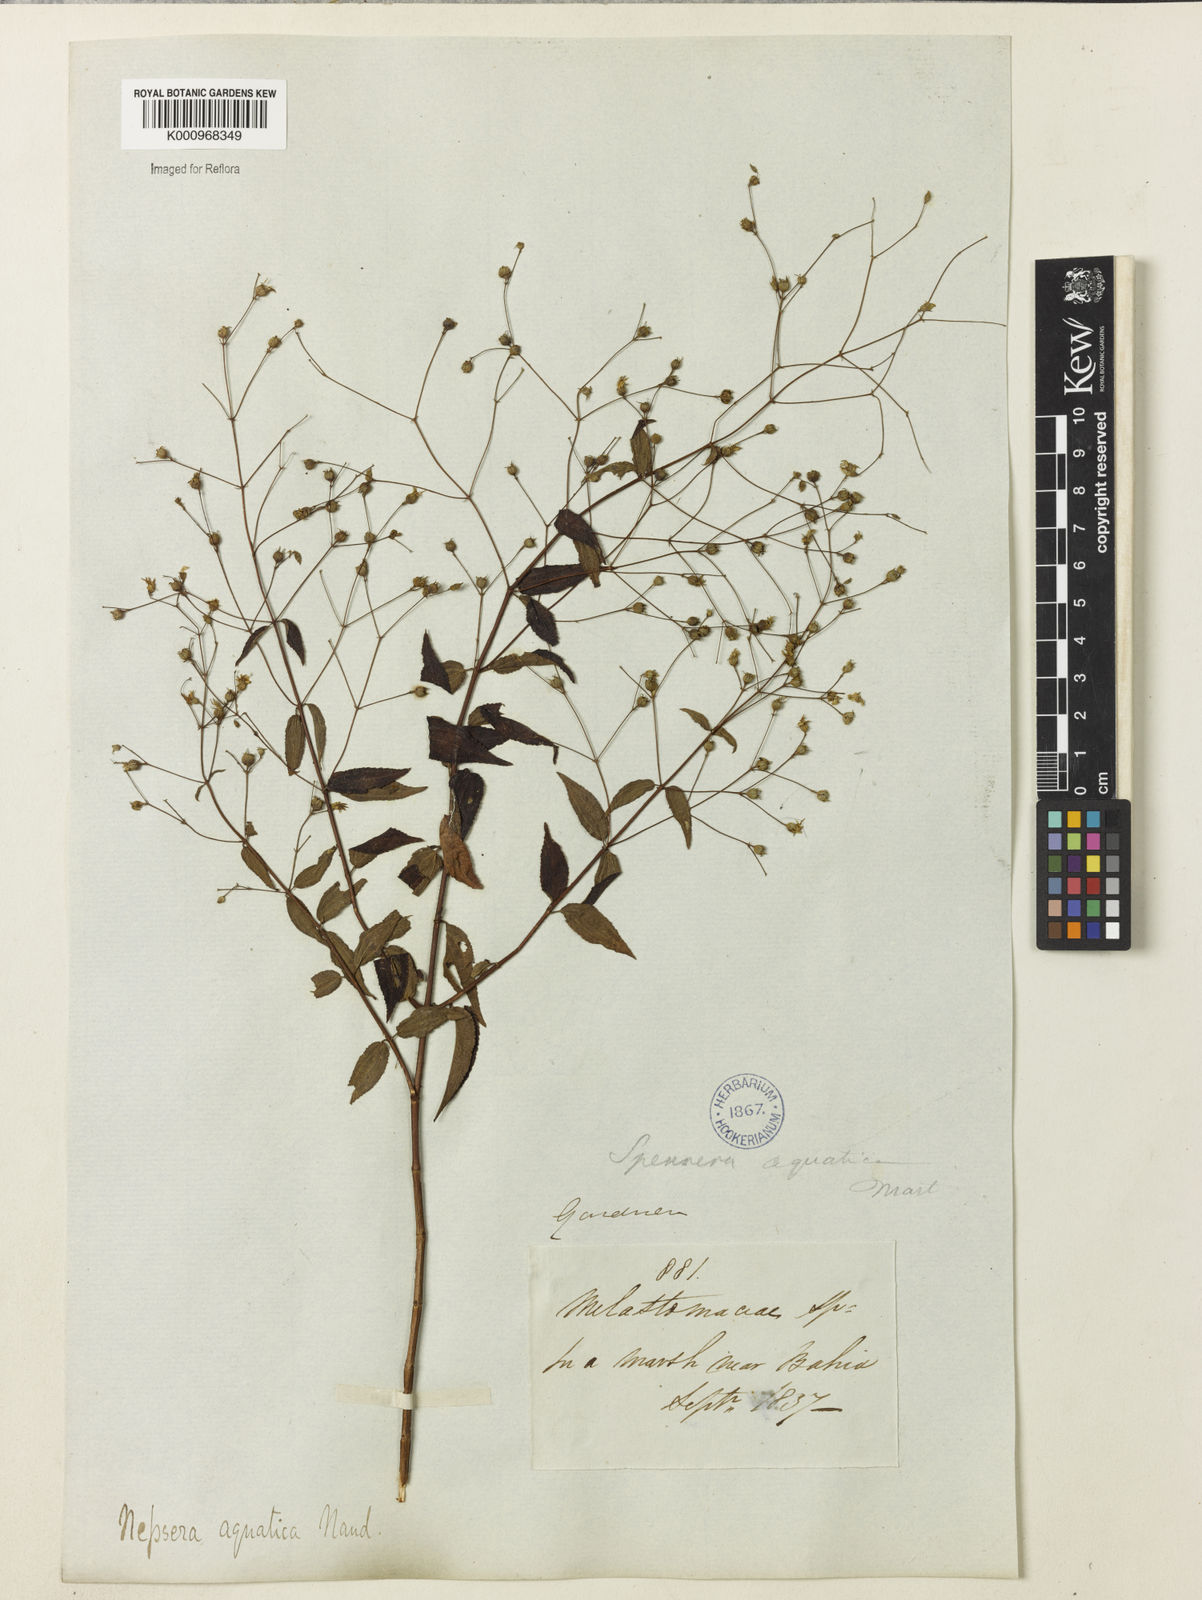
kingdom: Plantae
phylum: Tracheophyta
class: Magnoliopsida
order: Myrtales
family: Melastomataceae
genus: Nepsera
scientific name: Nepsera aquatica
